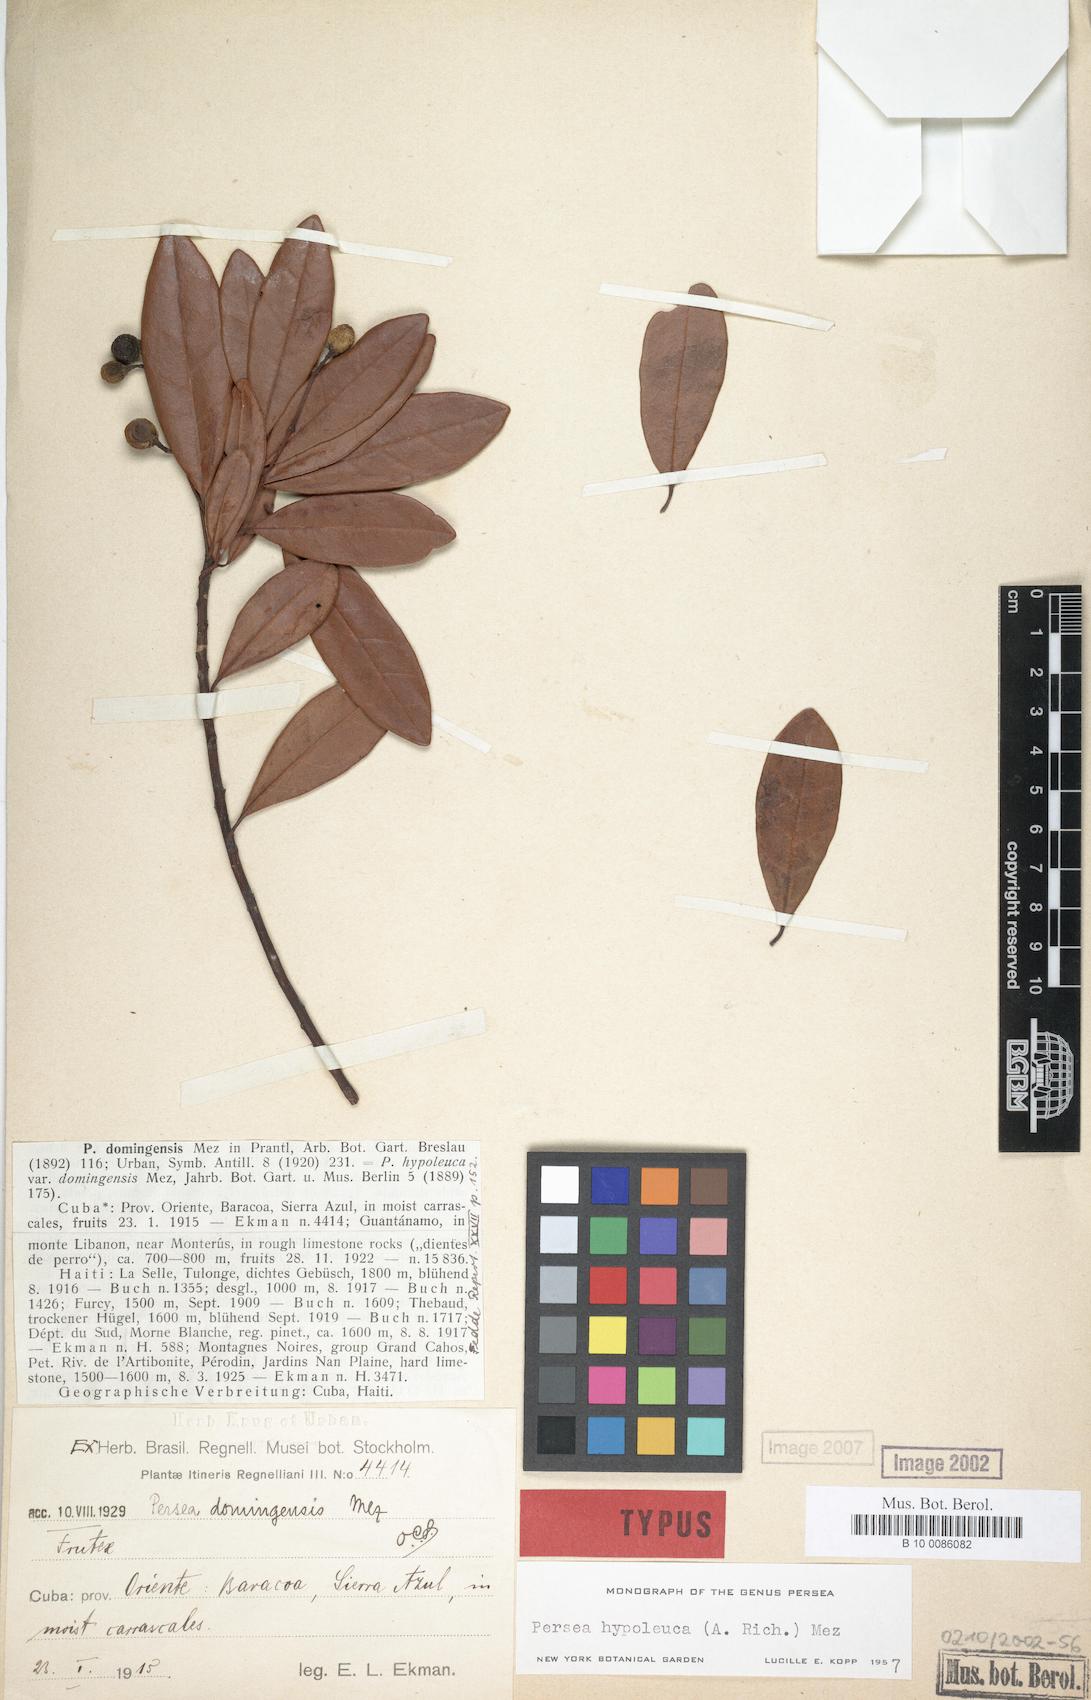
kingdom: Plantae
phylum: Tracheophyta
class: Magnoliopsida
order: Laurales
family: Lauraceae
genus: Persea
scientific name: Persea hypoleuca
